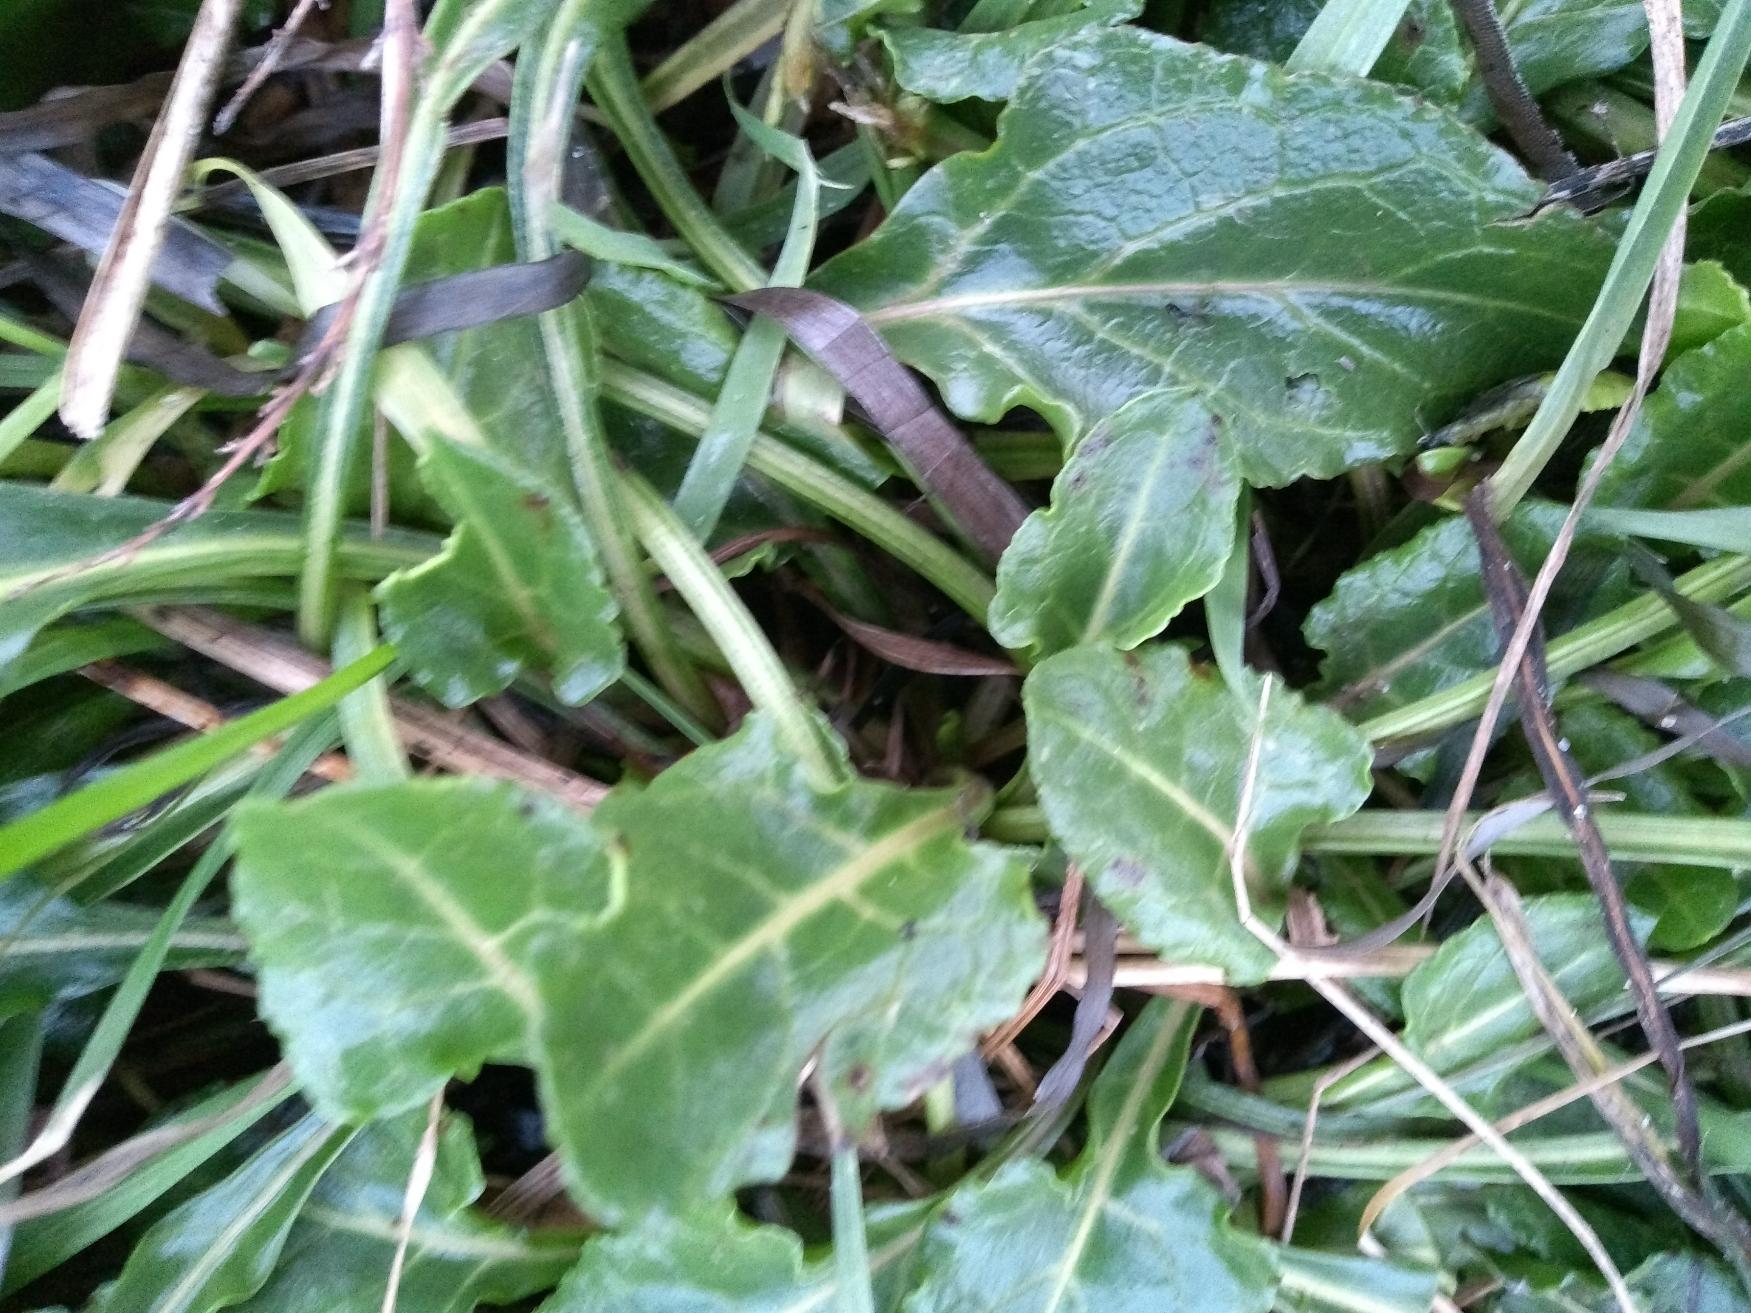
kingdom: Plantae
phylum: Tracheophyta
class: Magnoliopsida
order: Caryophyllales
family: Amaranthaceae
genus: Beta
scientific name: Beta maritima
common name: Strand-bede
